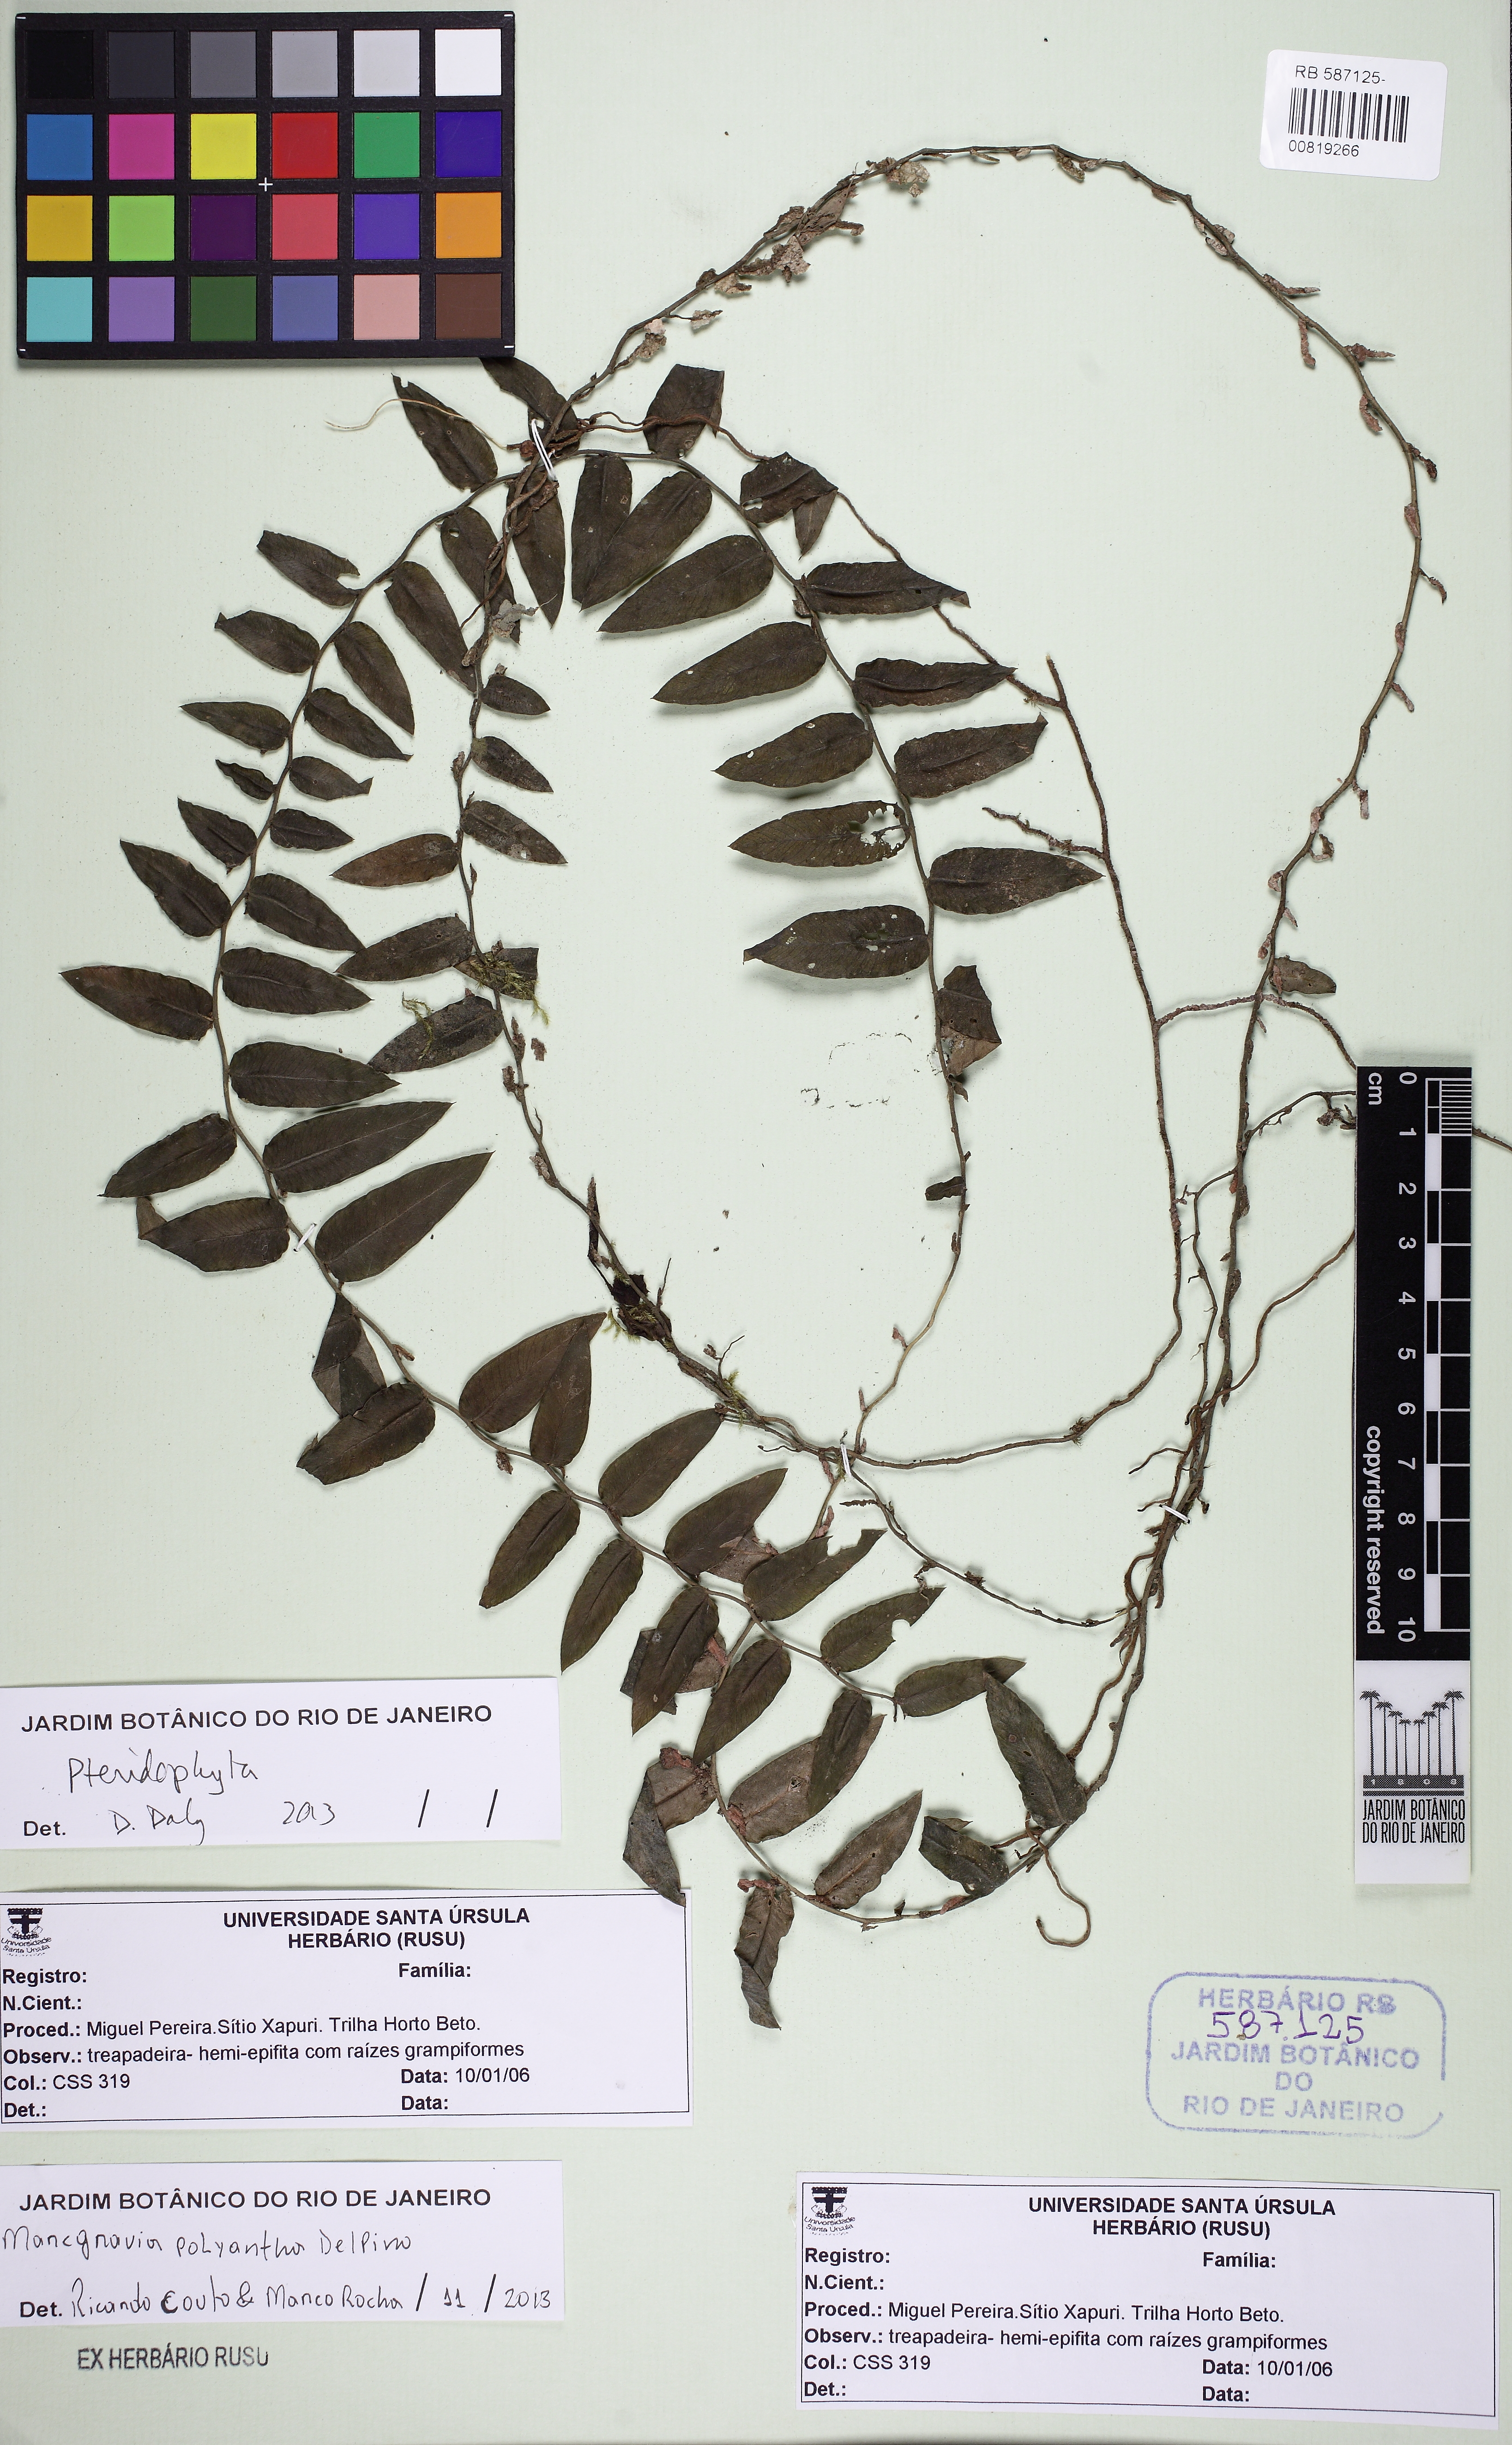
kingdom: Plantae
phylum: Tracheophyta
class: Magnoliopsida
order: Ericales
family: Marcgraviaceae
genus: Marcgravia
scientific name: Marcgravia polyantha
